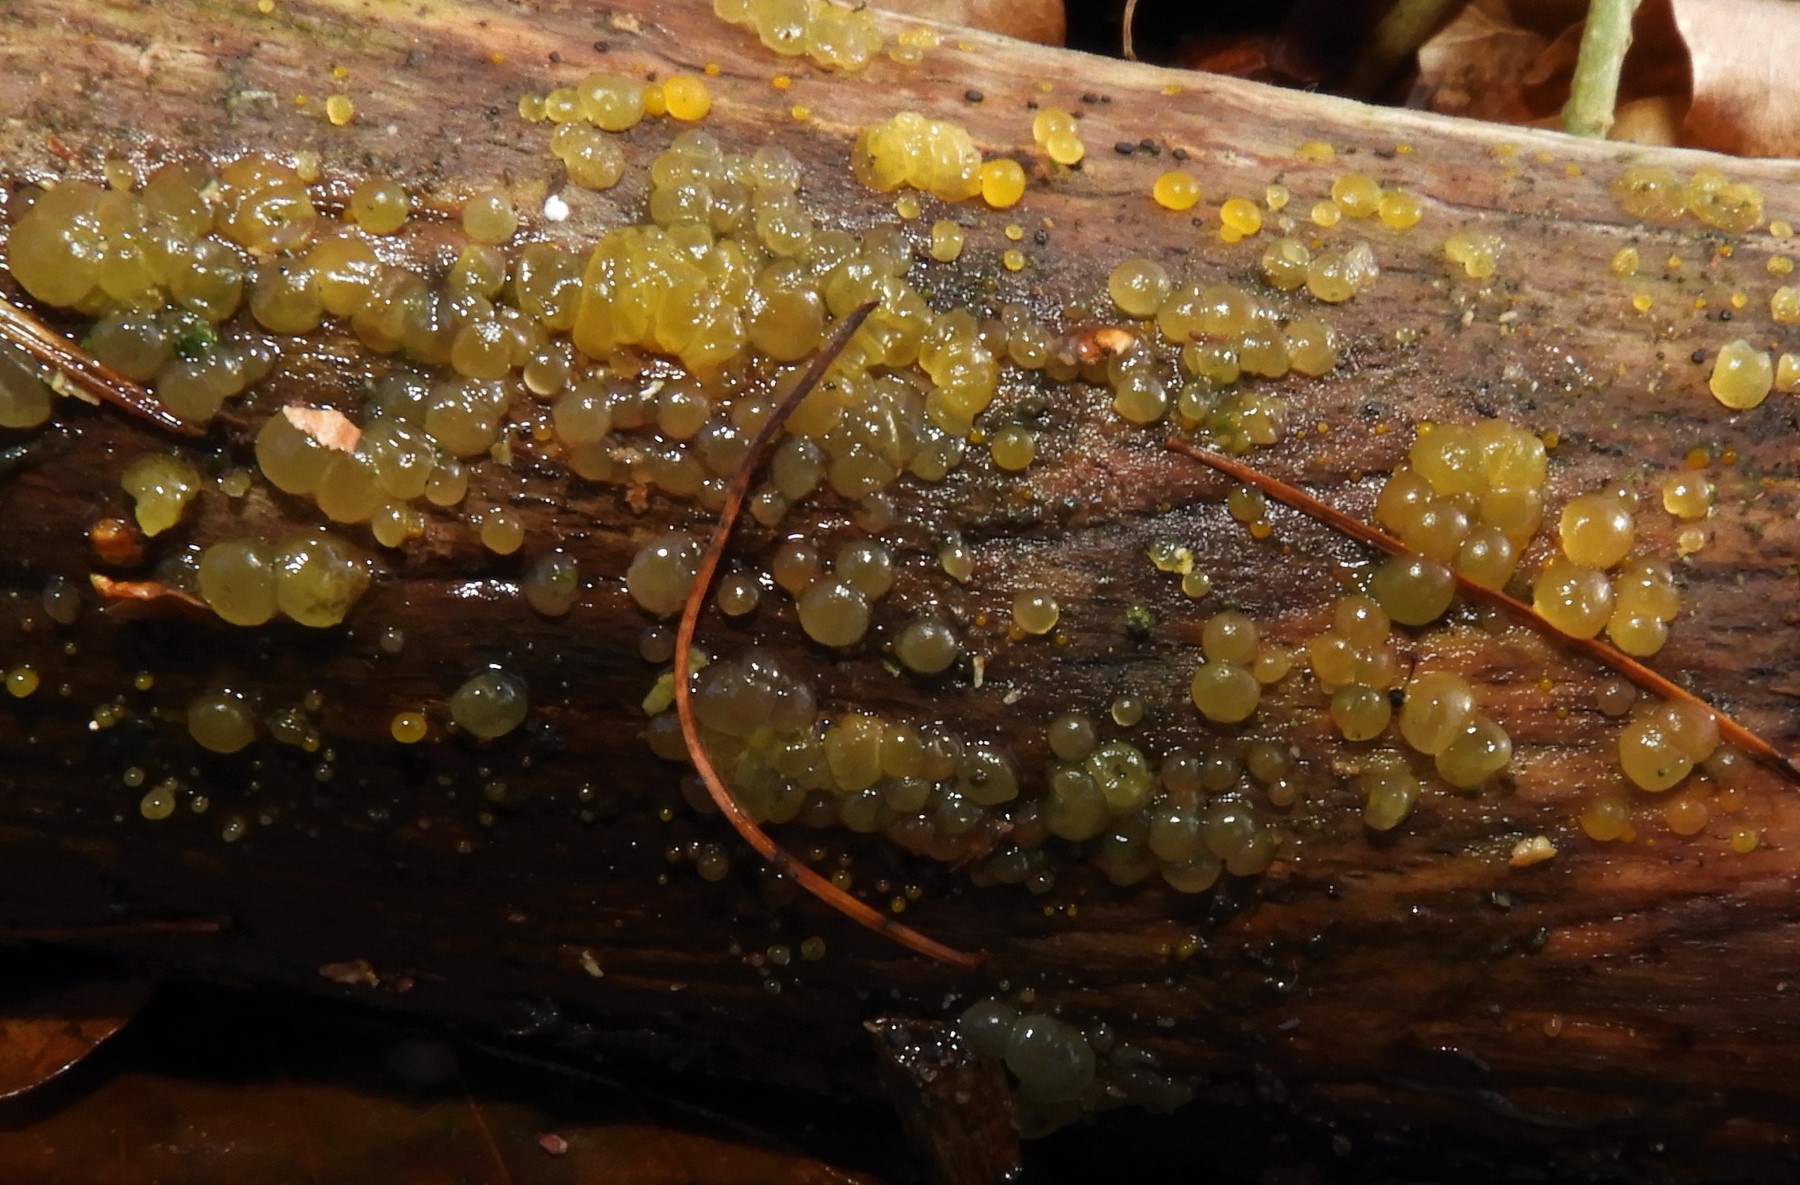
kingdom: Fungi
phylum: Basidiomycota
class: Dacrymycetes
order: Dacrymycetales
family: Dacrymycetaceae
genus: Dacrymyces
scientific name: Dacrymyces stillatus
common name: almindelig tåresvamp
